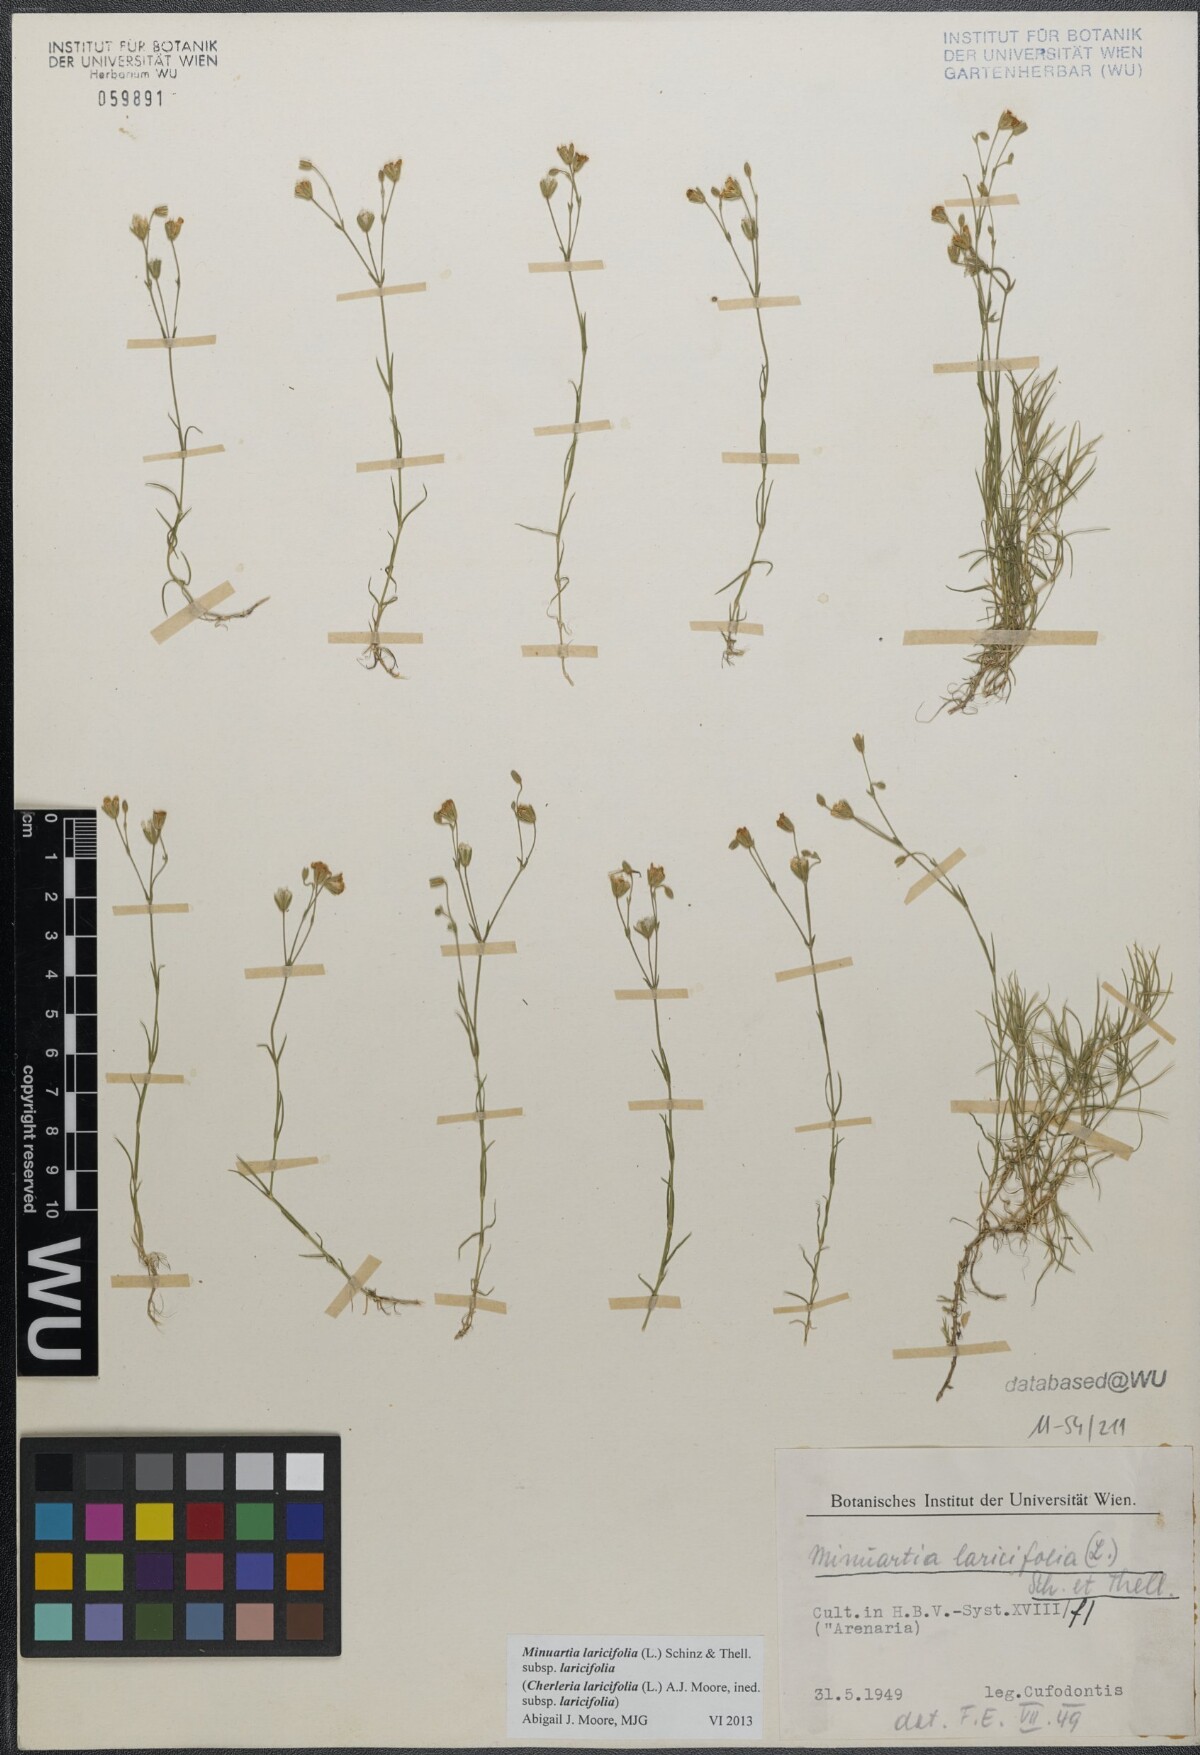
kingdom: Plantae
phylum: Tracheophyta
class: Magnoliopsida
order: Caryophyllales
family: Caryophyllaceae
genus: Cherleria
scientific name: Cherleria laricifolia
